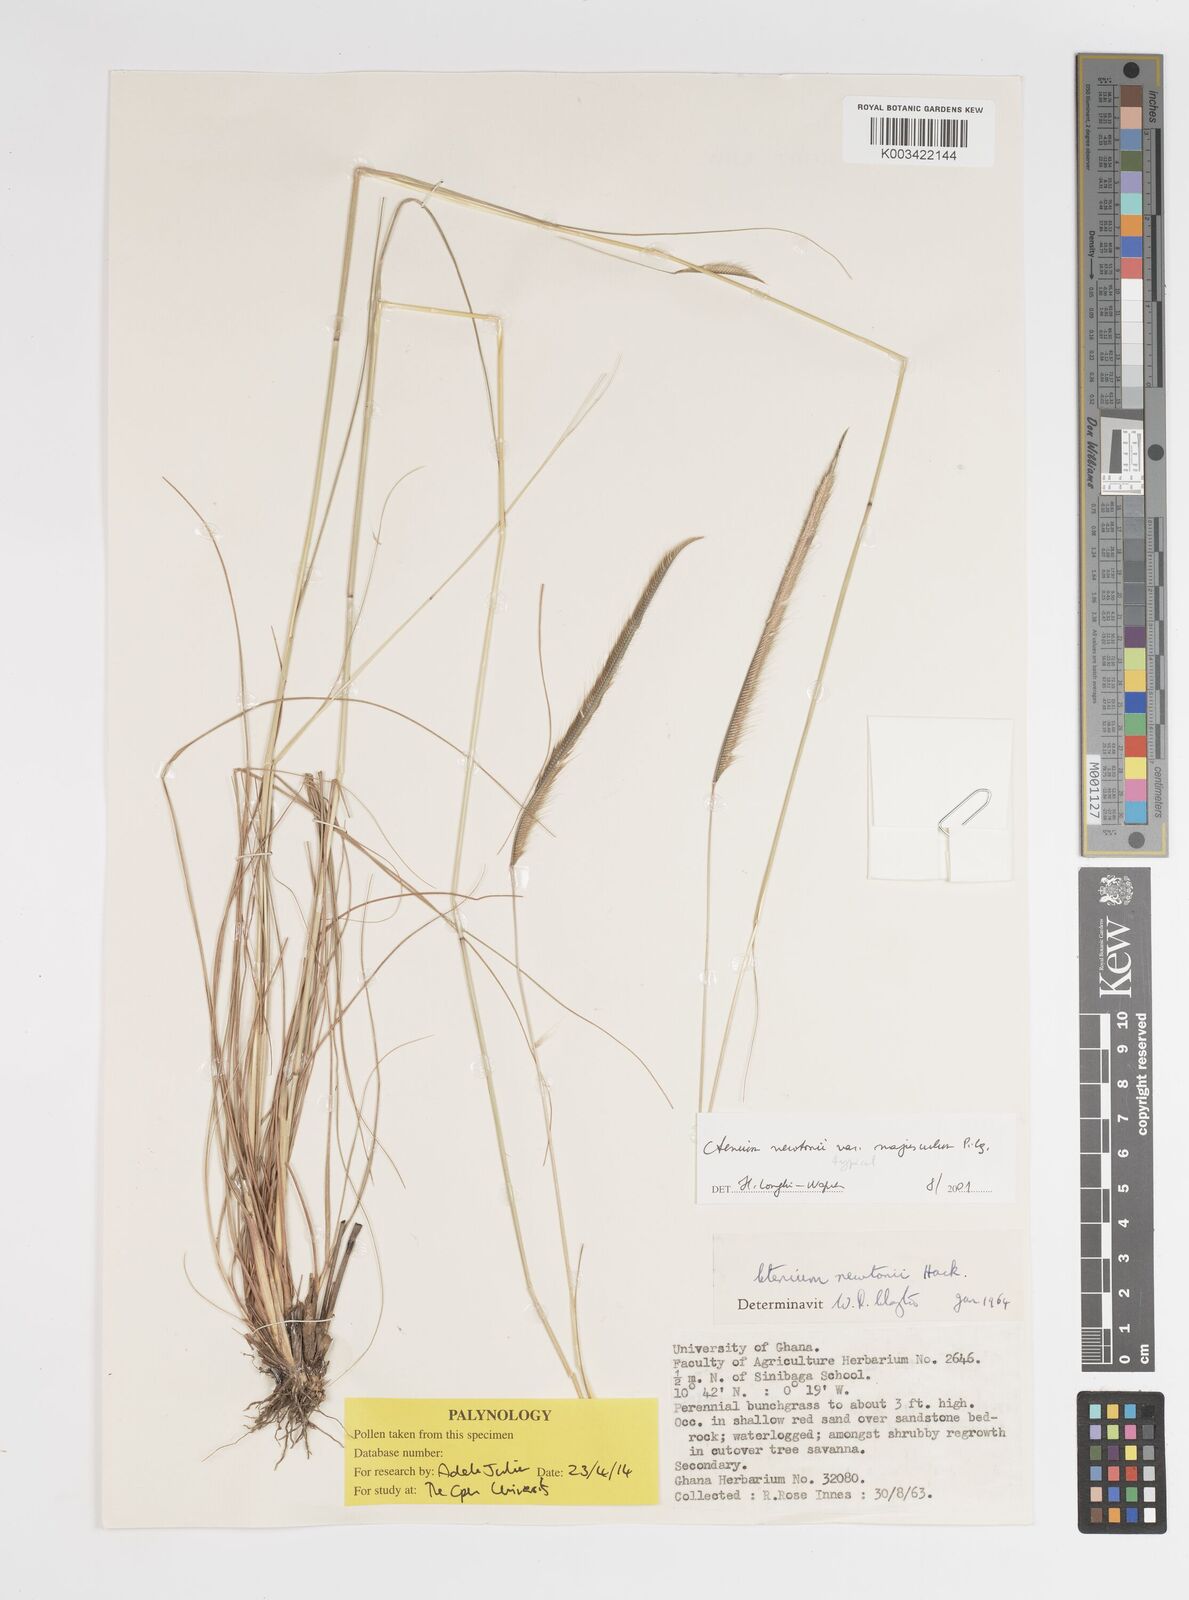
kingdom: Plantae
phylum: Tracheophyta
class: Liliopsida
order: Poales
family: Poaceae
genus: Ctenium
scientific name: Ctenium newtonii
